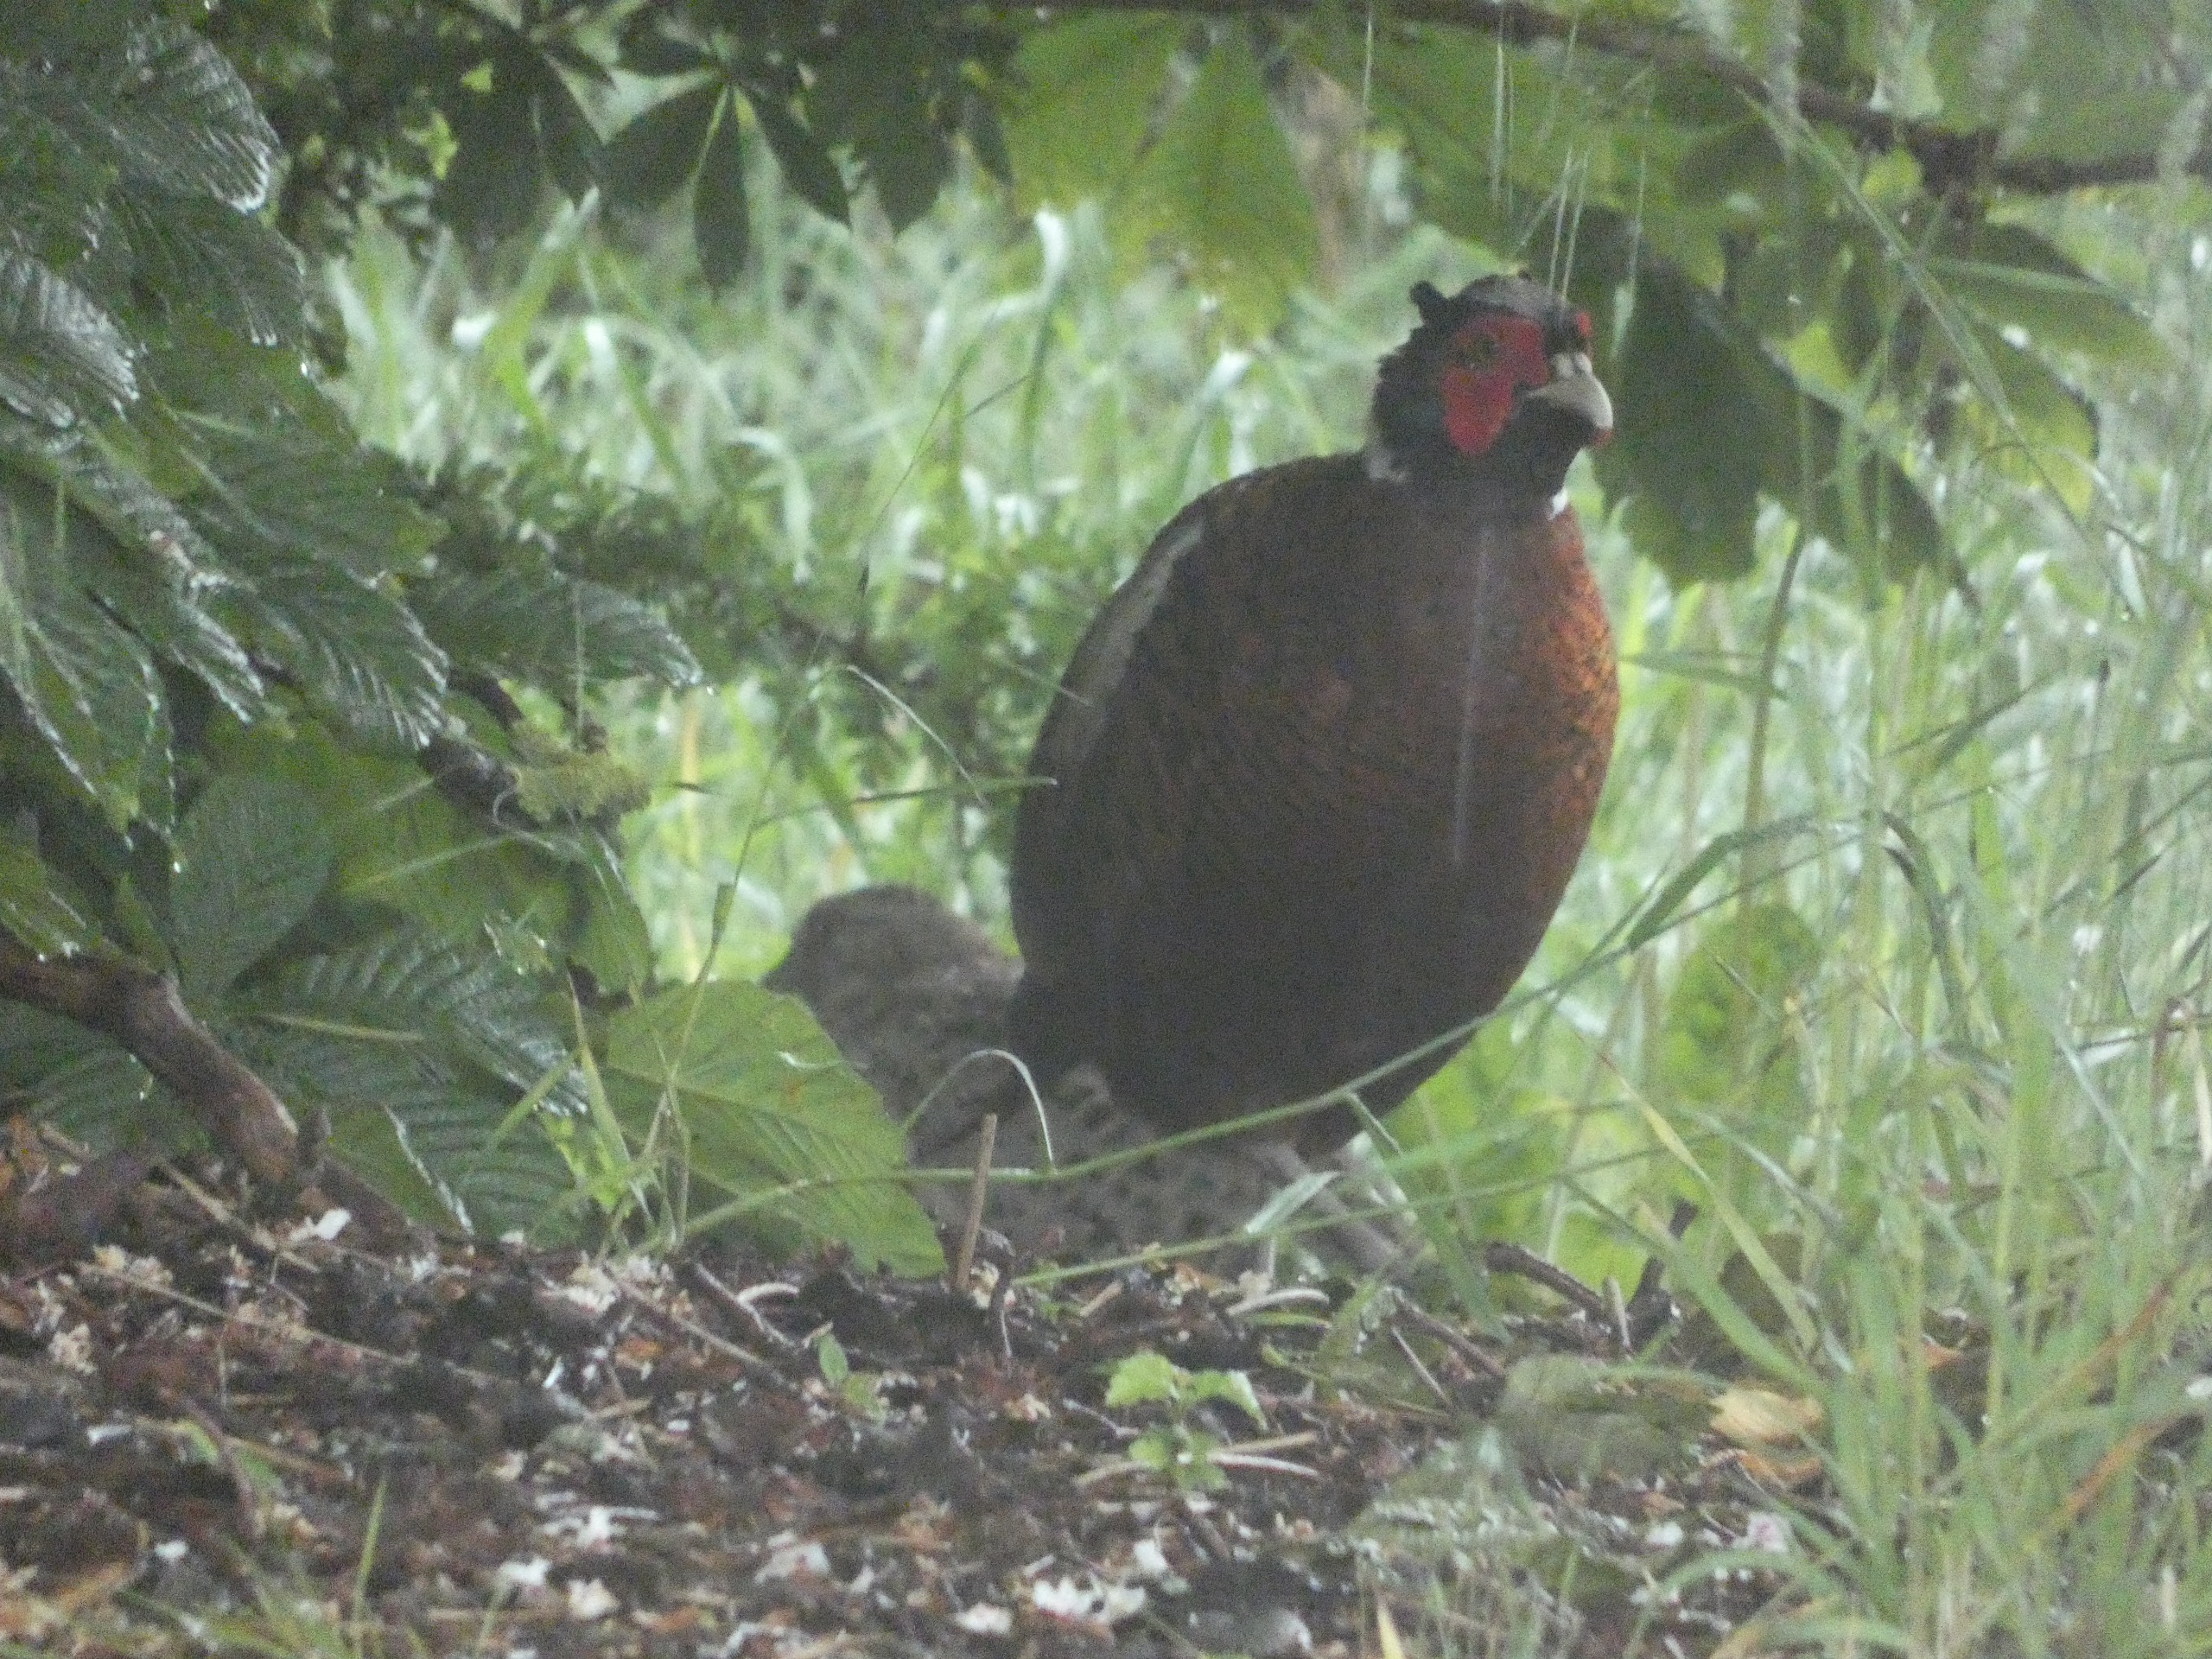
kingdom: Animalia
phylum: Chordata
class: Aves
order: Galliformes
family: Phasianidae
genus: Phasianus
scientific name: Phasianus colchicus
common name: Fasan
